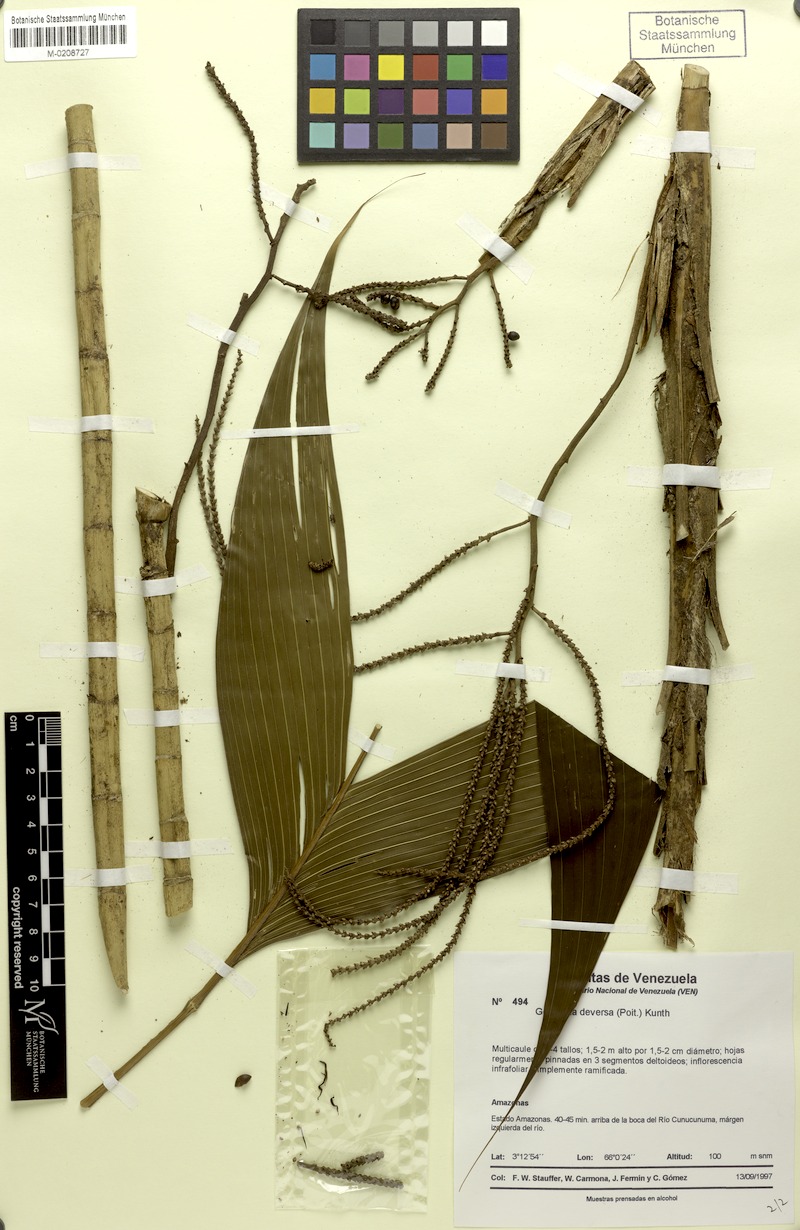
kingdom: Plantae
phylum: Tracheophyta
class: Liliopsida
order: Arecales
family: Arecaceae
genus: Geonoma
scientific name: Geonoma deversa
